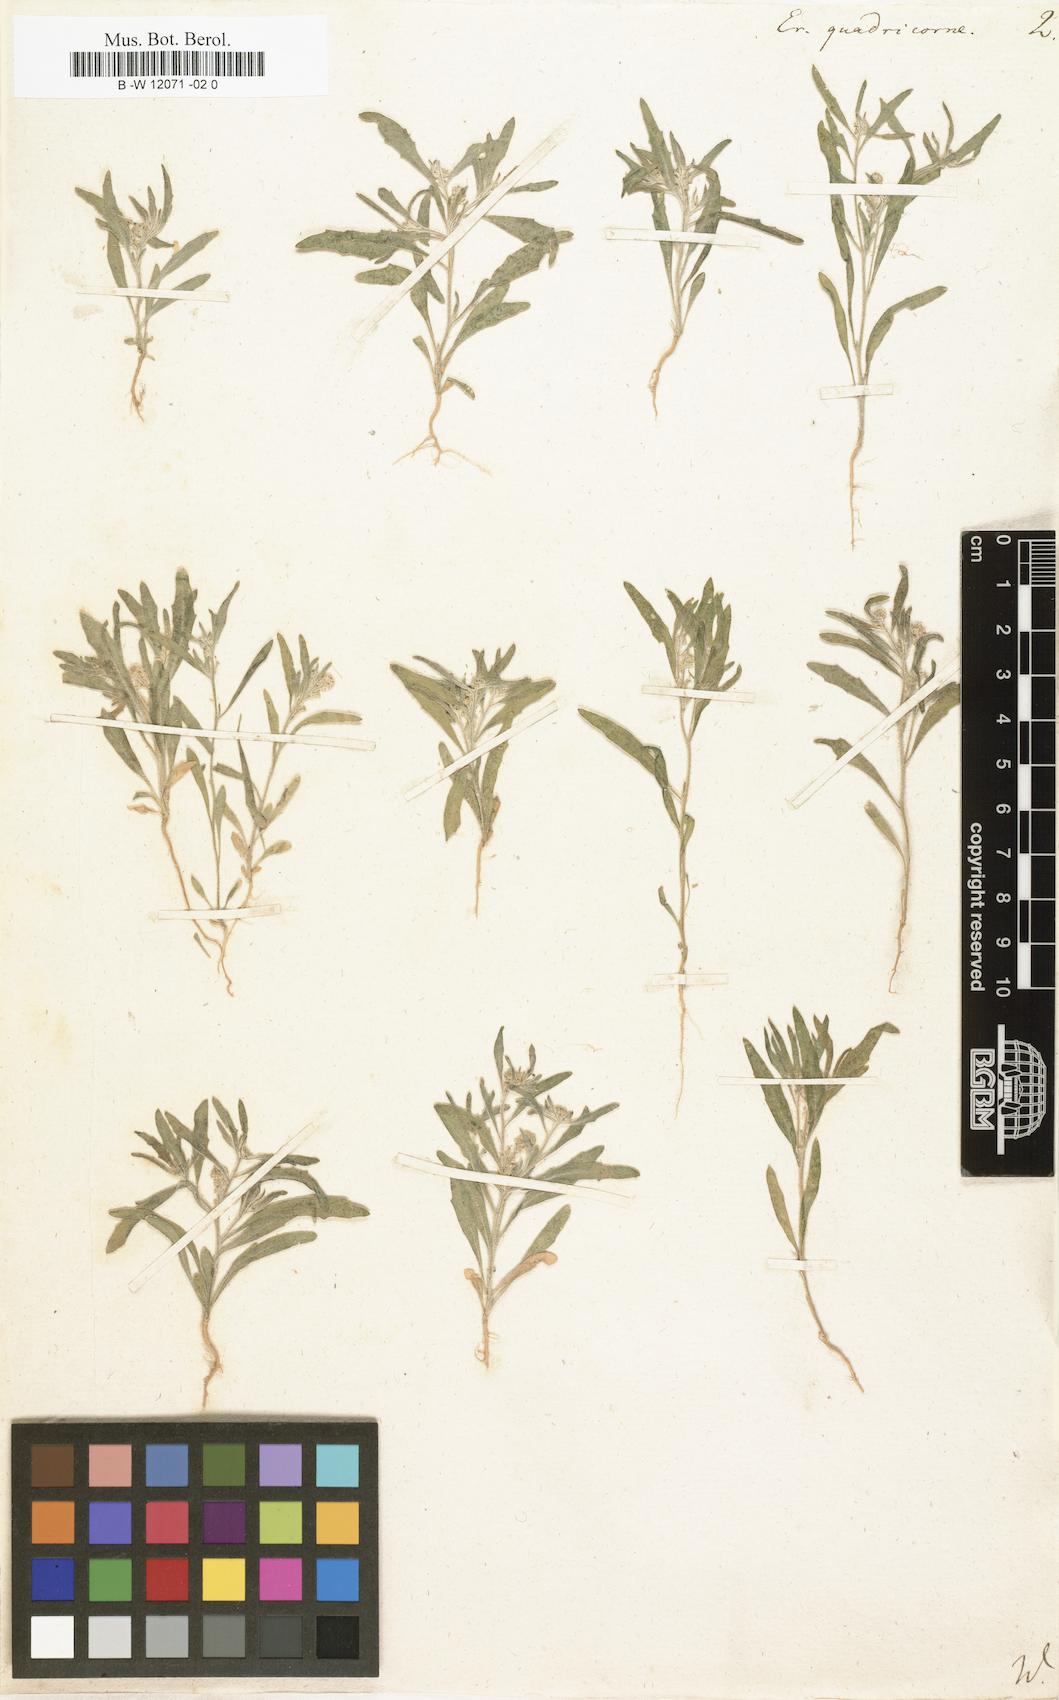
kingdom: Plantae
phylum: Tracheophyta
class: Magnoliopsida
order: Brassicales
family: Brassicaceae
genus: Tetracme
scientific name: Tetracme quadricornis
